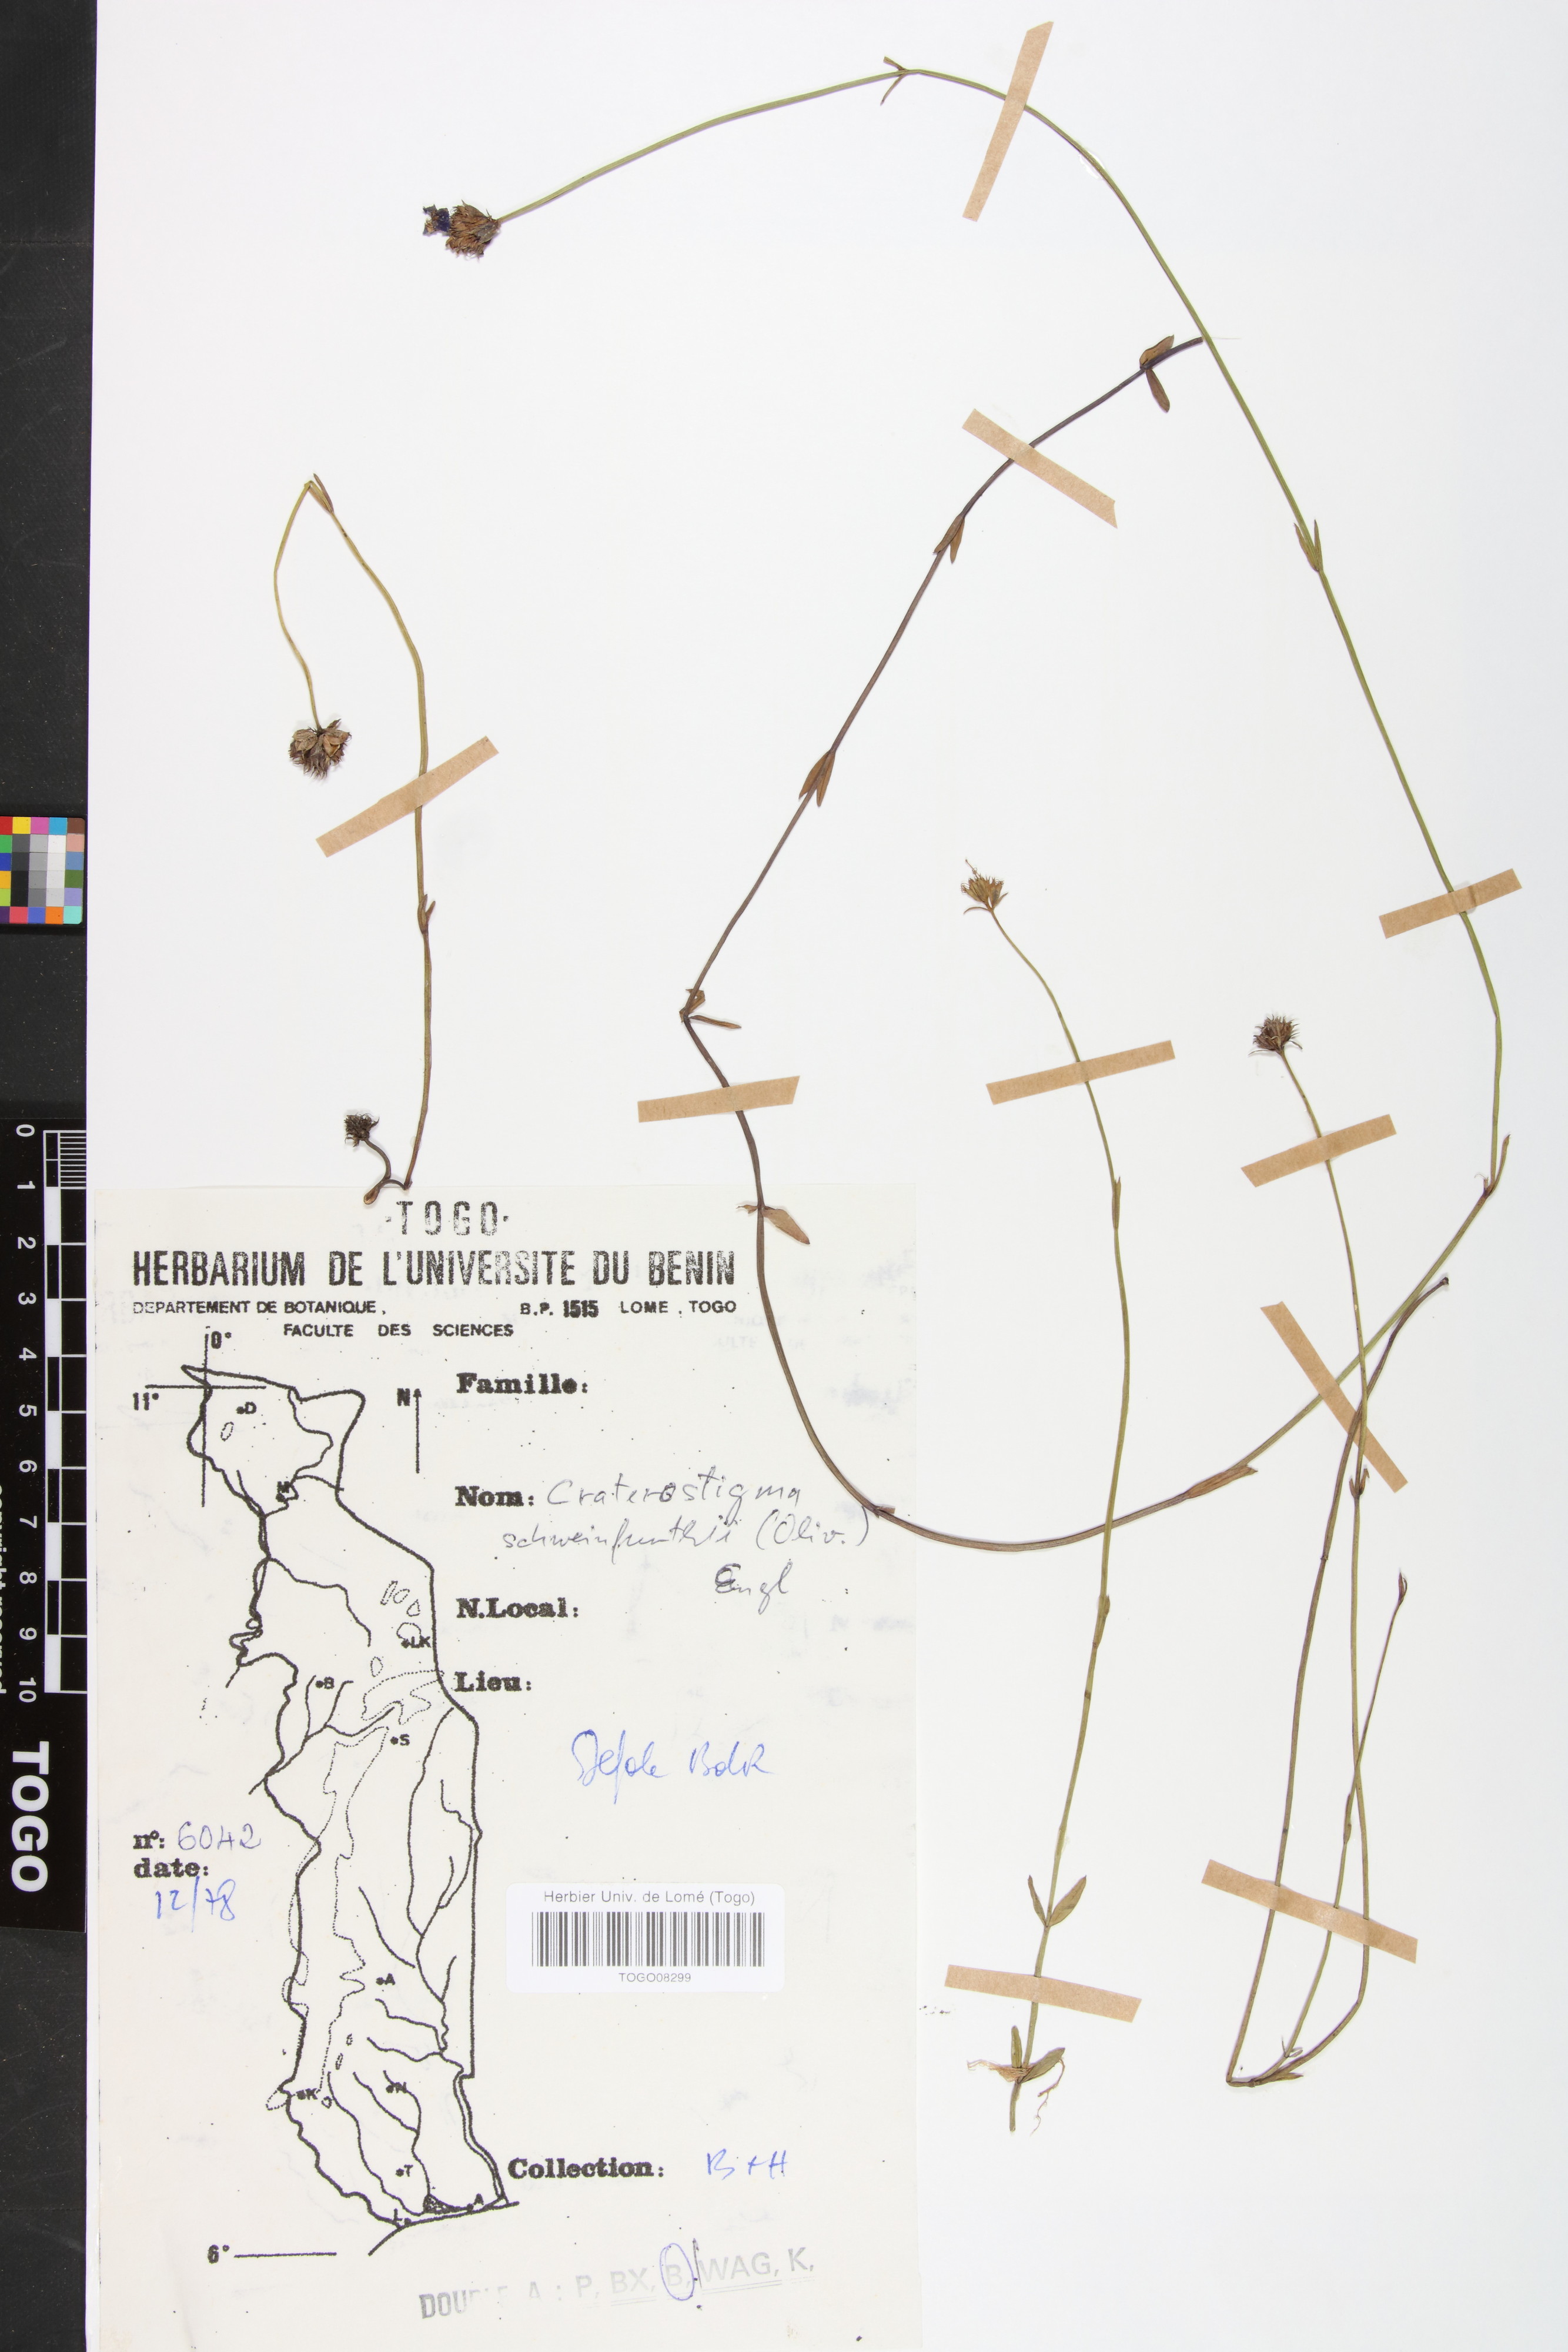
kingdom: Plantae
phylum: Tracheophyta
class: Magnoliopsida
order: Lamiales
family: Linderniaceae
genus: Crepidorhopalon
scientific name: Crepidorhopalon schweinfurthii
